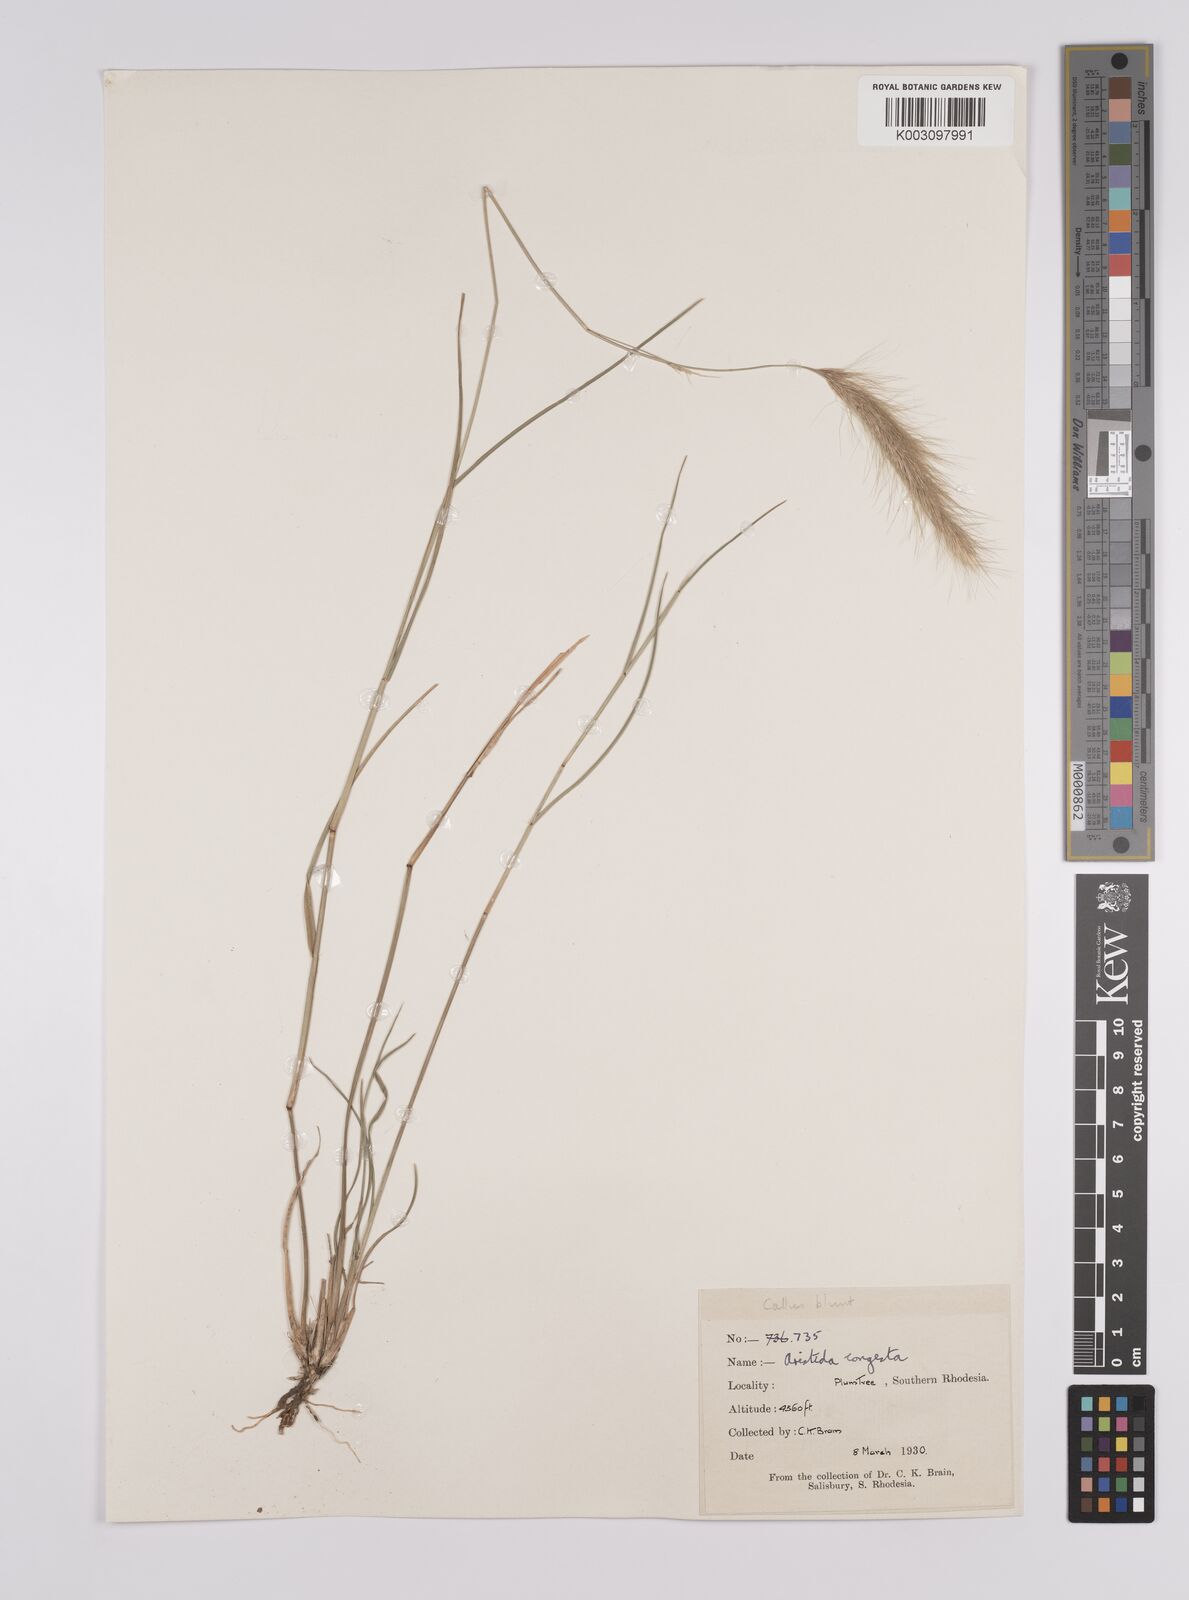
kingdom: Plantae
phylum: Tracheophyta
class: Liliopsida
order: Poales
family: Poaceae
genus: Aristida
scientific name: Aristida congesta
